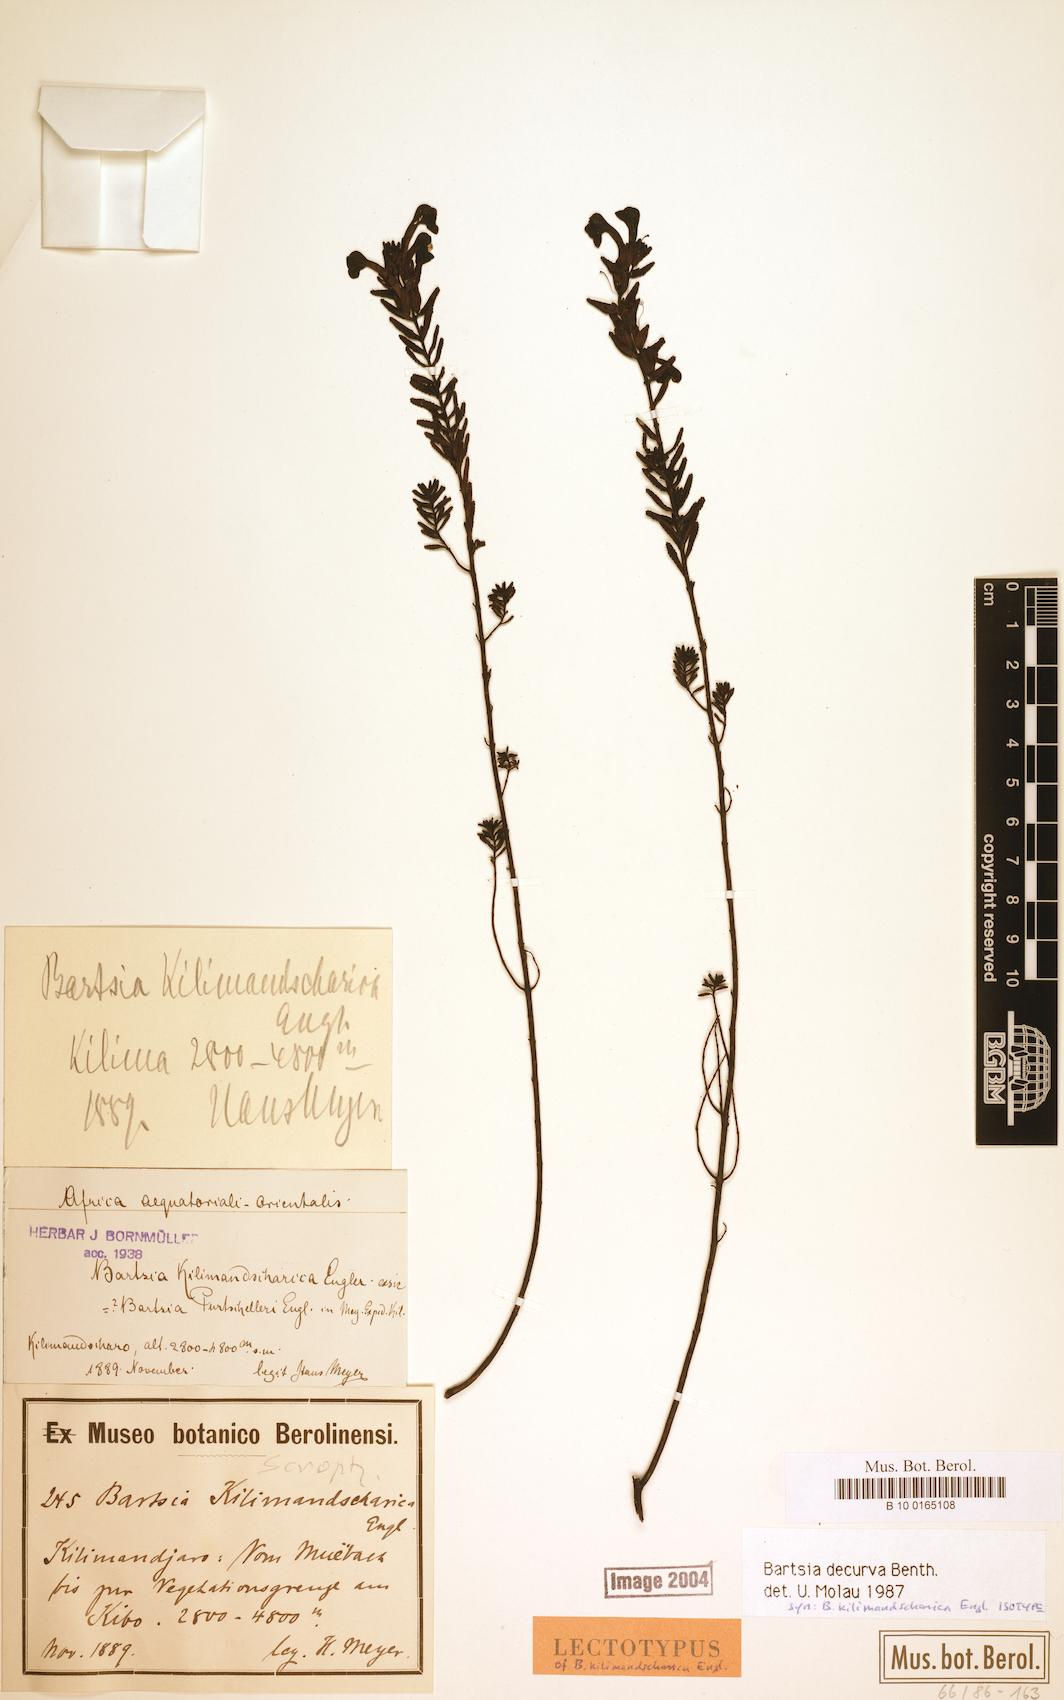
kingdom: Plantae
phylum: Tracheophyta
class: Magnoliopsida
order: Lamiales
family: Orobanchaceae
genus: Hedbergia
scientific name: Hedbergia decurva
